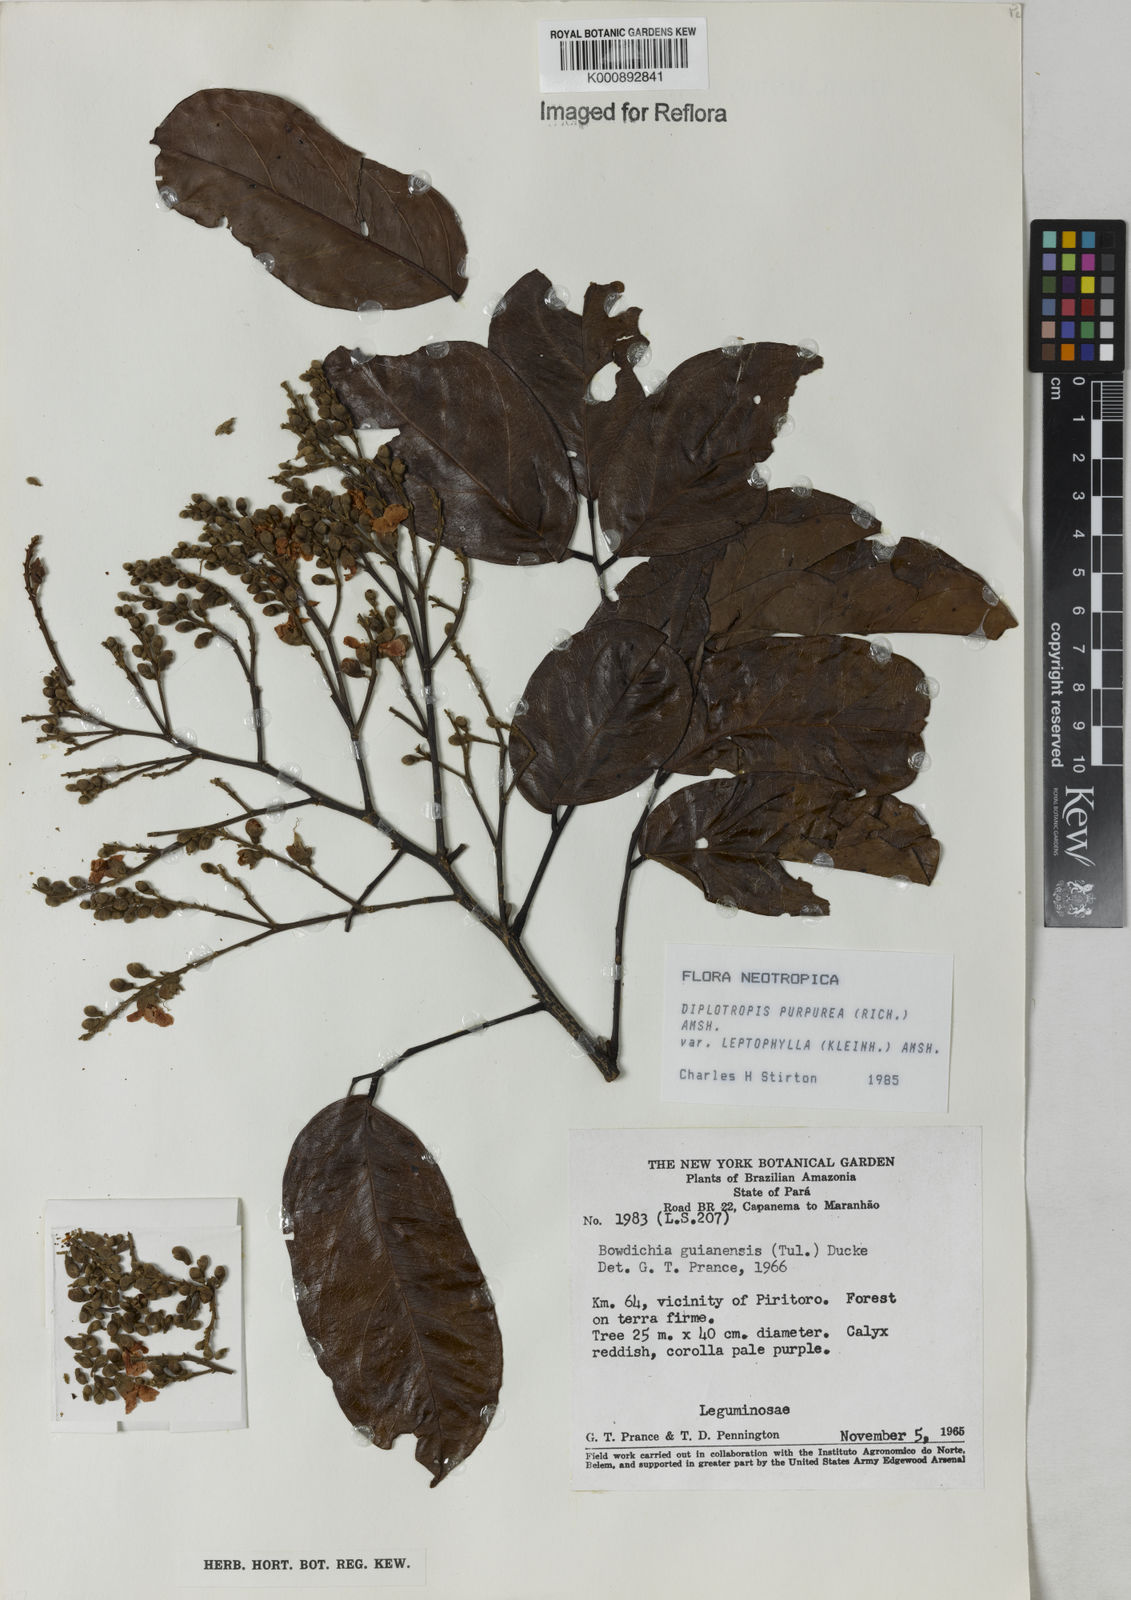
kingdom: Plantae
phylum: Tracheophyta
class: Magnoliopsida
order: Fabales
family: Fabaceae
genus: Diplotropis
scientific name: Diplotropis purpurea
